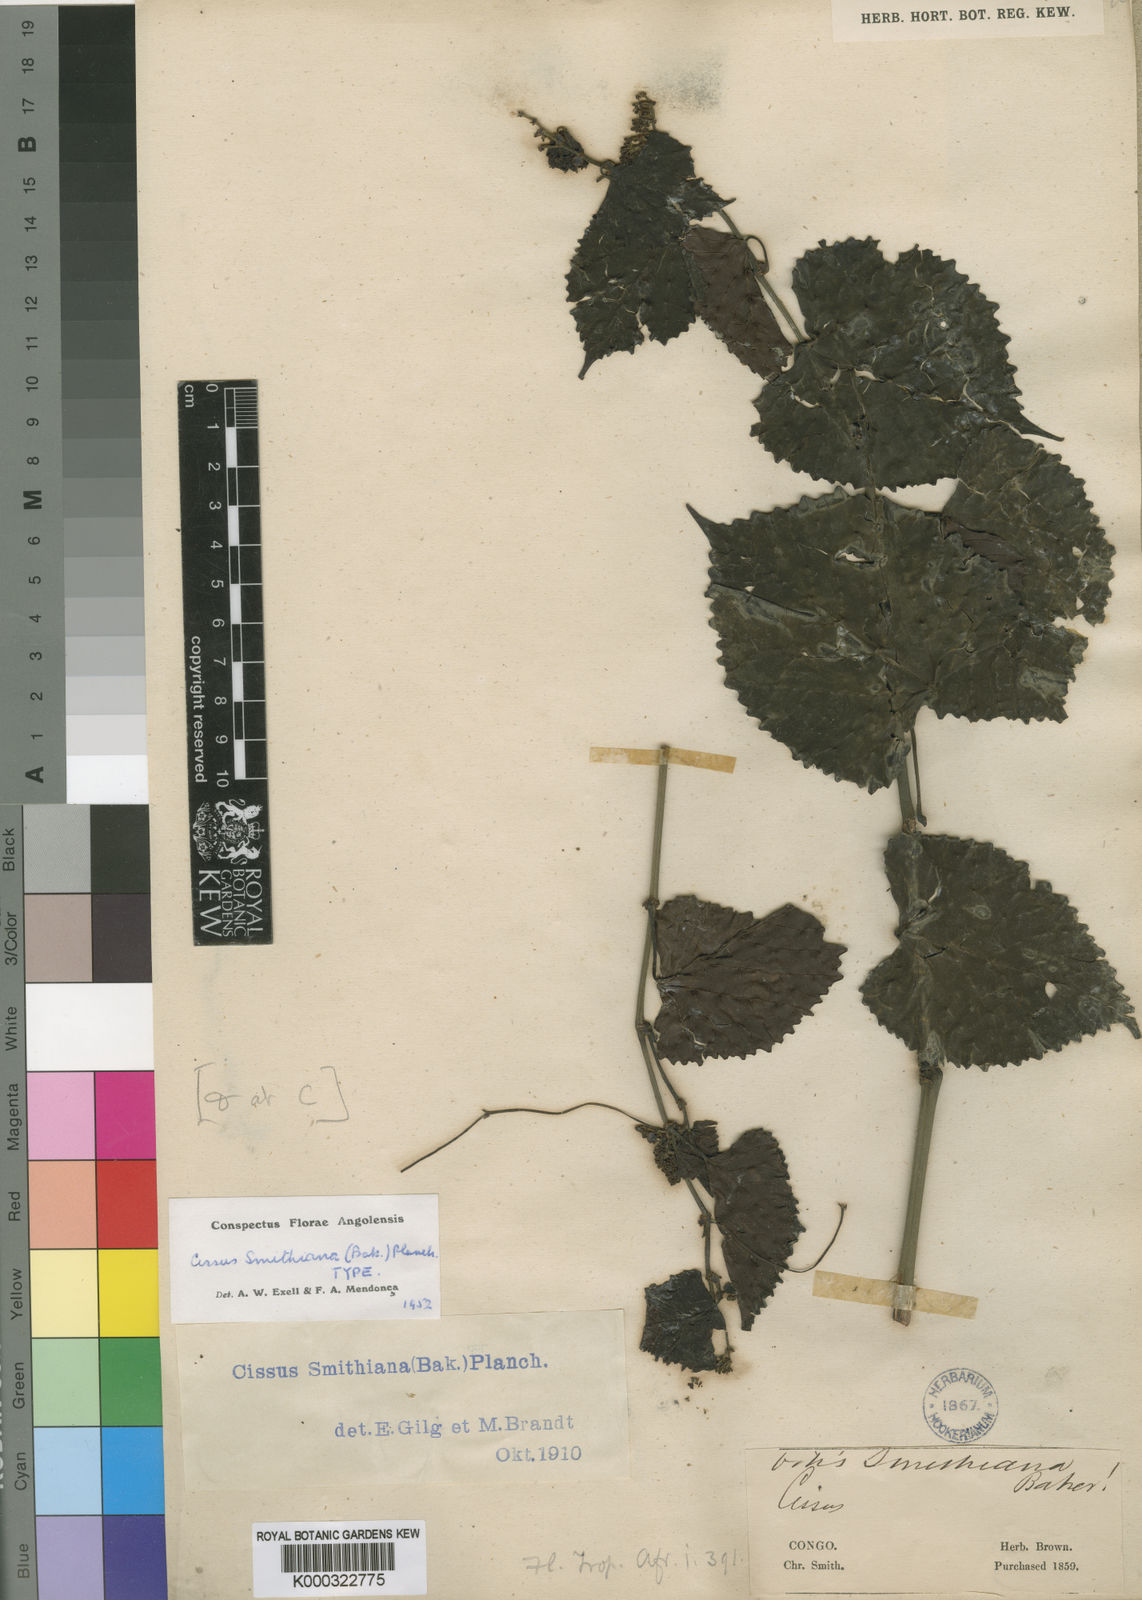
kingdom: Plantae
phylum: Tracheophyta
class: Magnoliopsida
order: Vitales
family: Vitaceae
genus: Cissus
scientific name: Cissus glaucophylla
